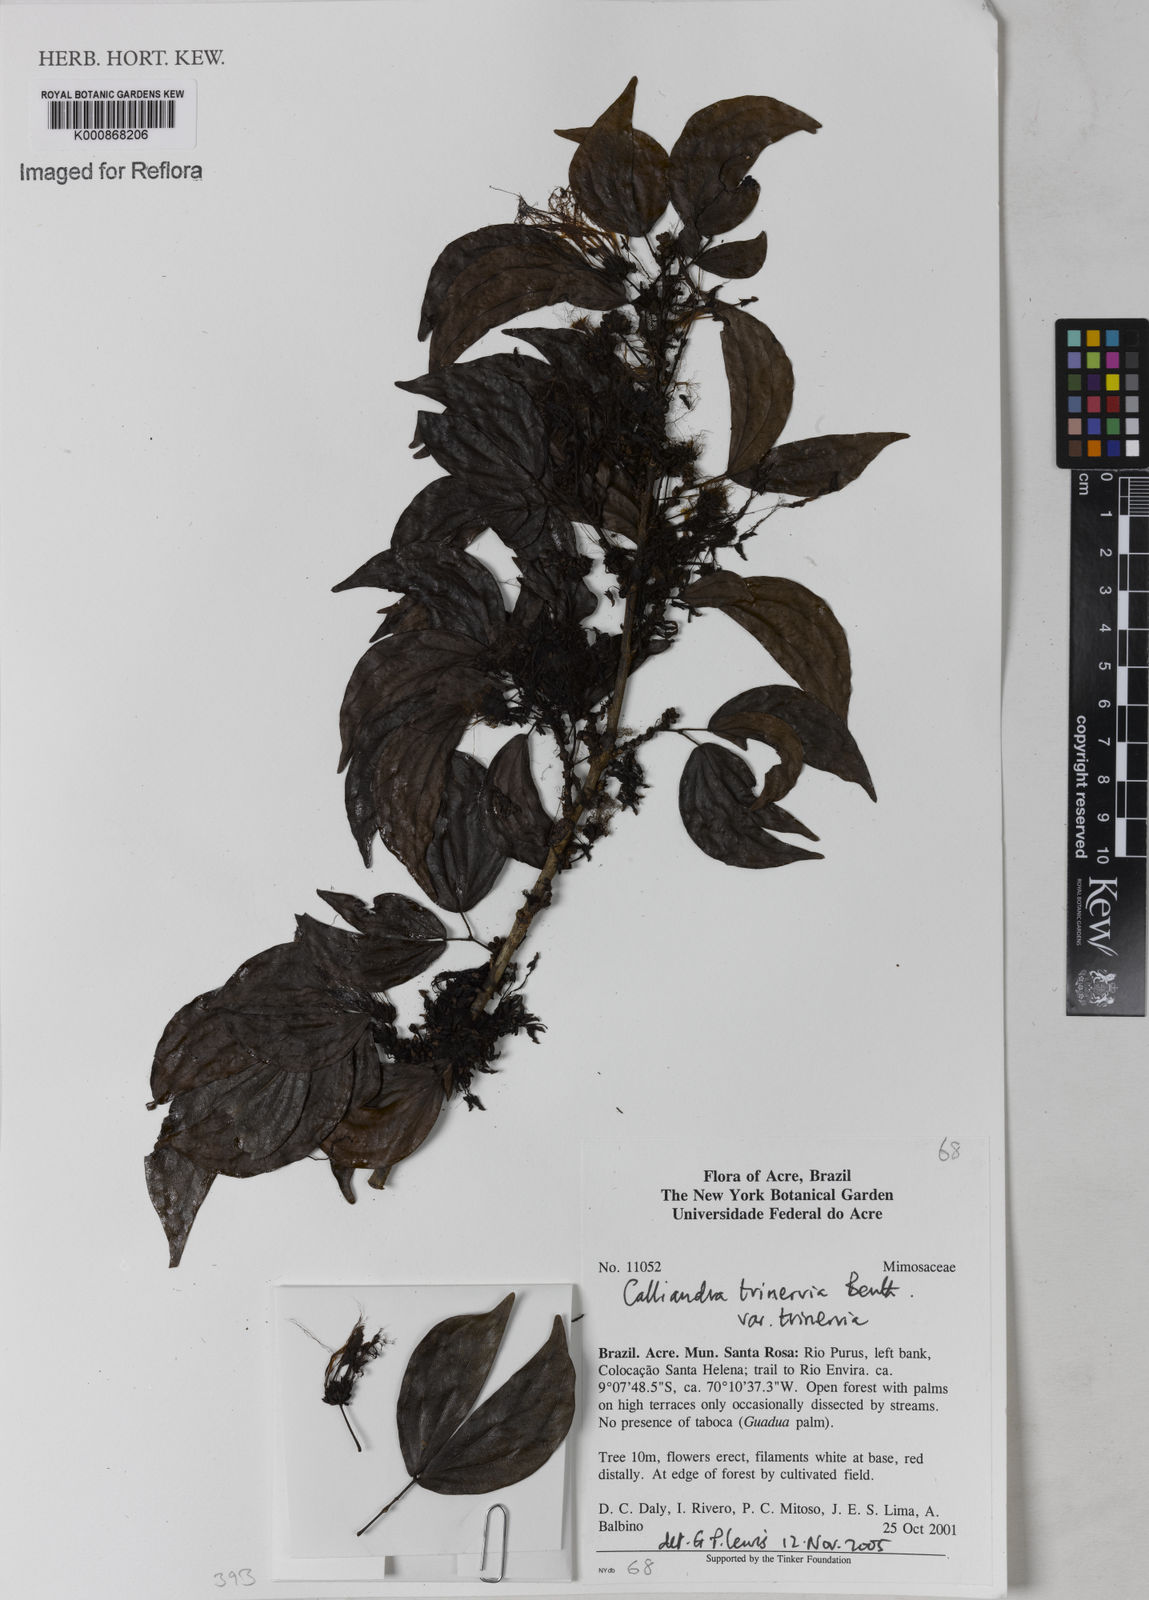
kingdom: Plantae
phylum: Tracheophyta
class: Magnoliopsida
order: Fabales
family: Fabaceae
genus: Calliandra
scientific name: Calliandra trinervia
